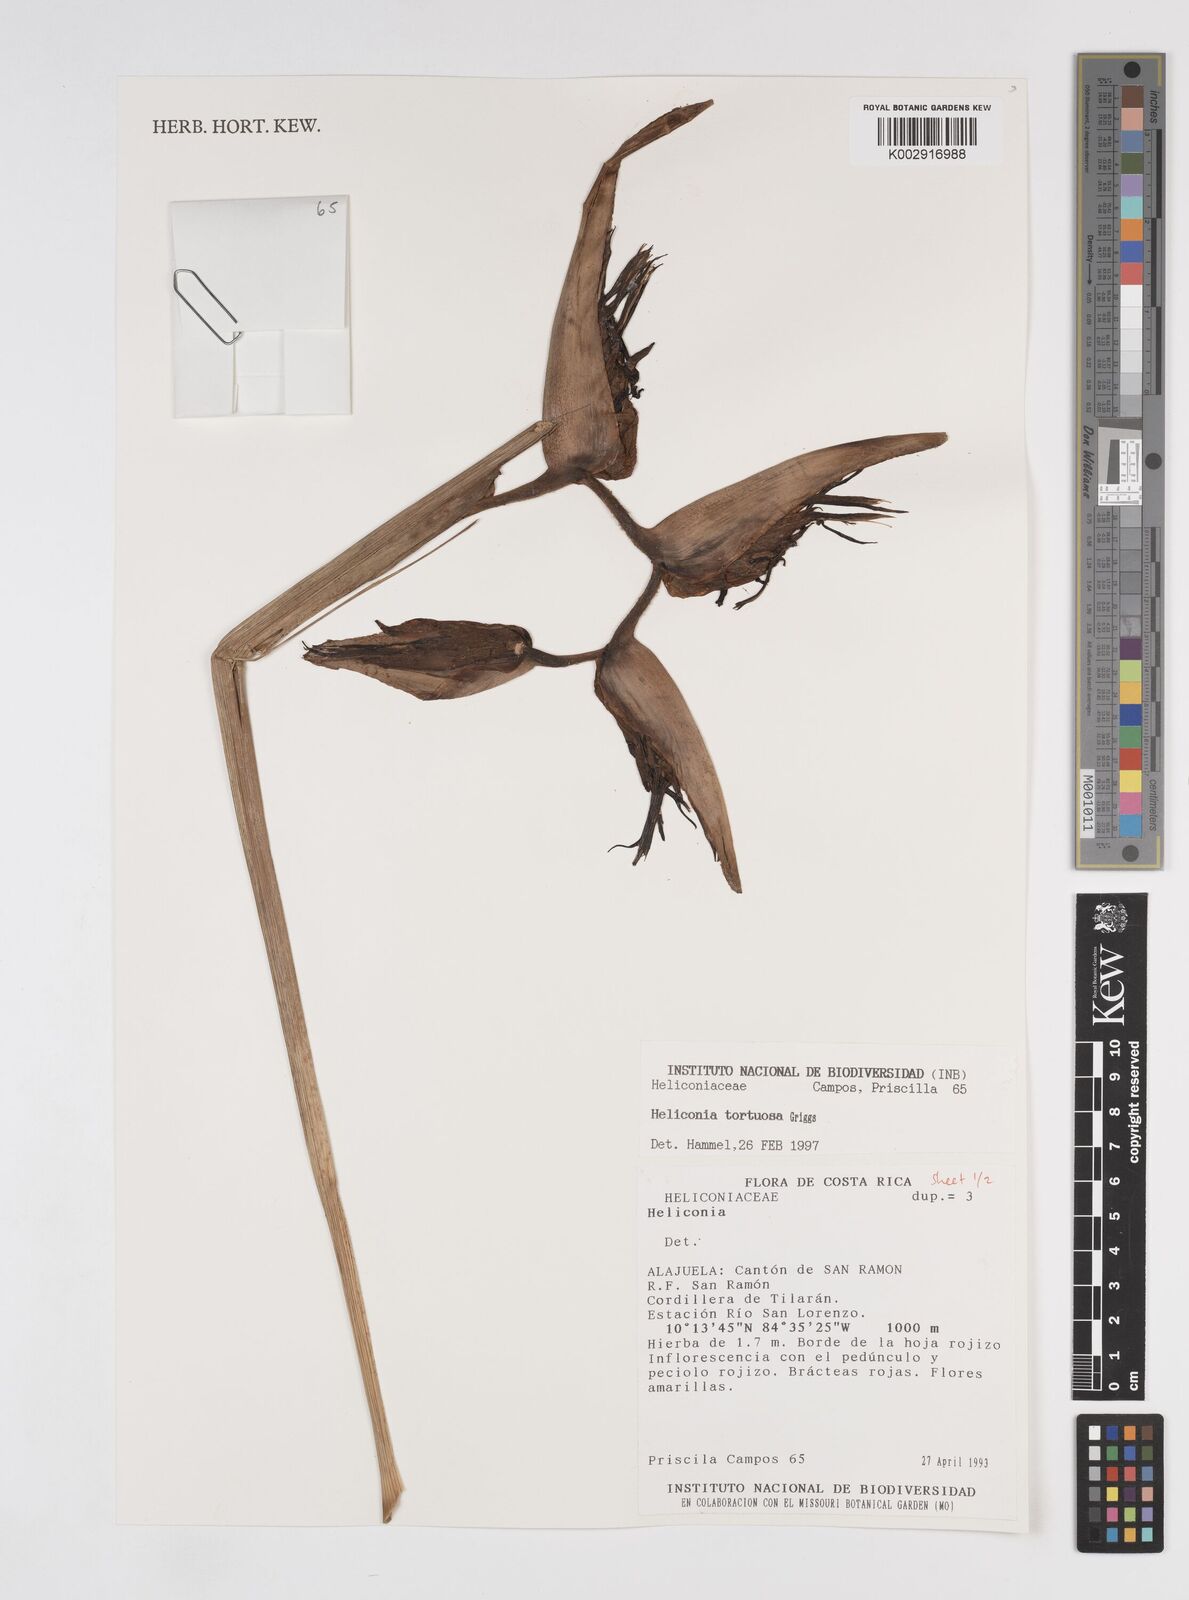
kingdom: Plantae
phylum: Tracheophyta
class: Liliopsida
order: Zingiberales
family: Heliconiaceae
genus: Heliconia
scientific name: Heliconia tortuosa
